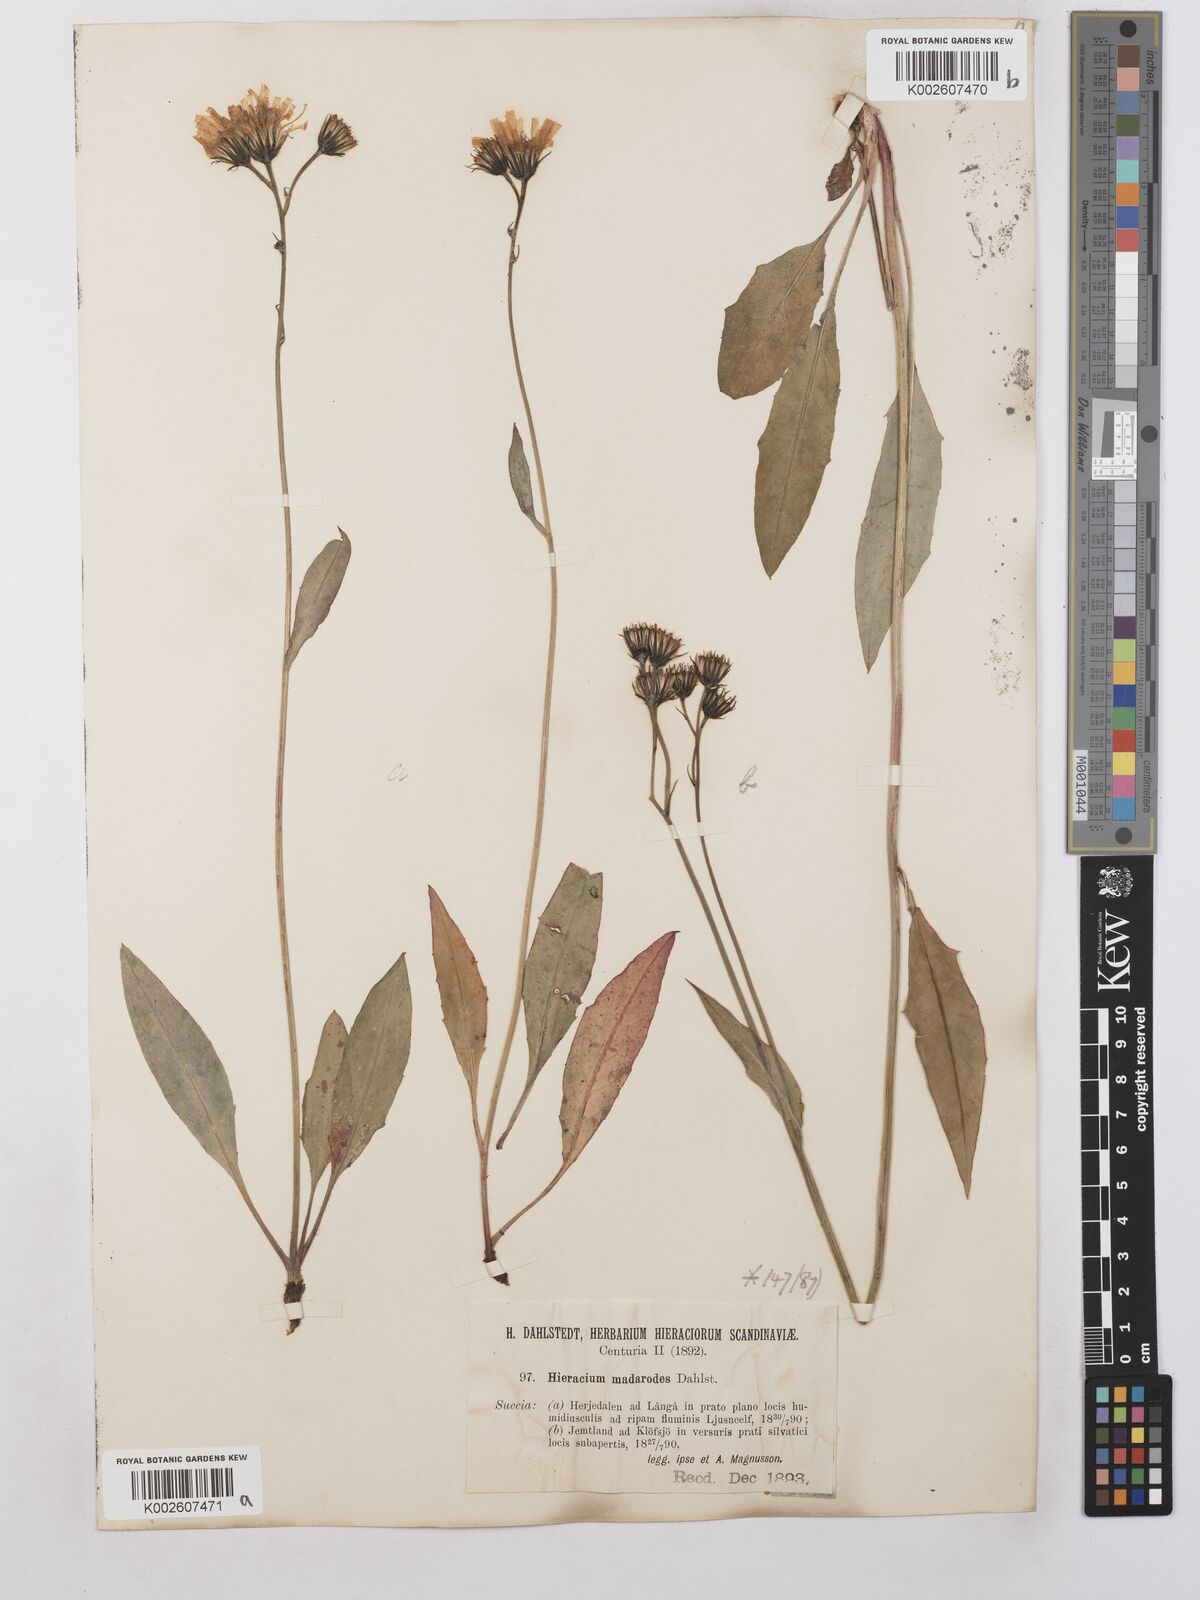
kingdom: Plantae
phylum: Tracheophyta
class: Magnoliopsida
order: Asterales
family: Asteraceae
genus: Hieracium
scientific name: Hieracium caesium
